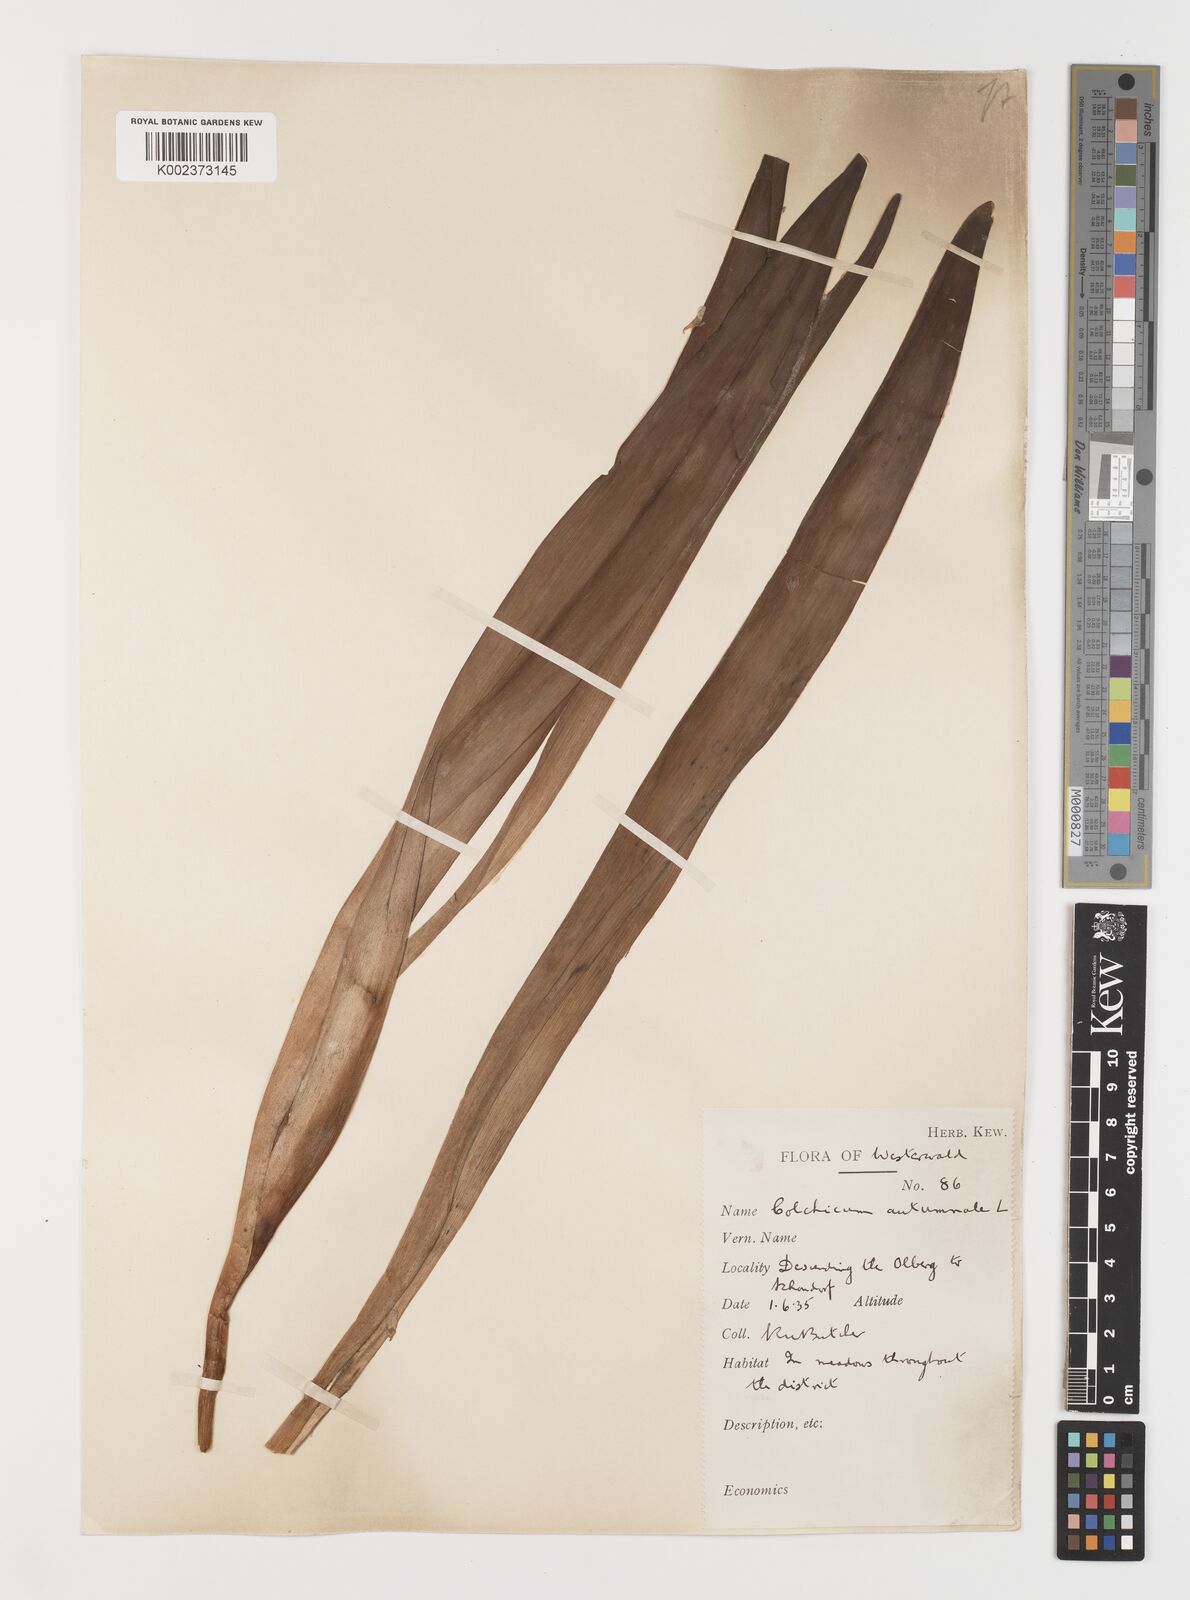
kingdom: Plantae
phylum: Tracheophyta
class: Liliopsida
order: Liliales
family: Colchicaceae
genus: Colchicum
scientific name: Colchicum autumnale
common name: Autumn crocus
